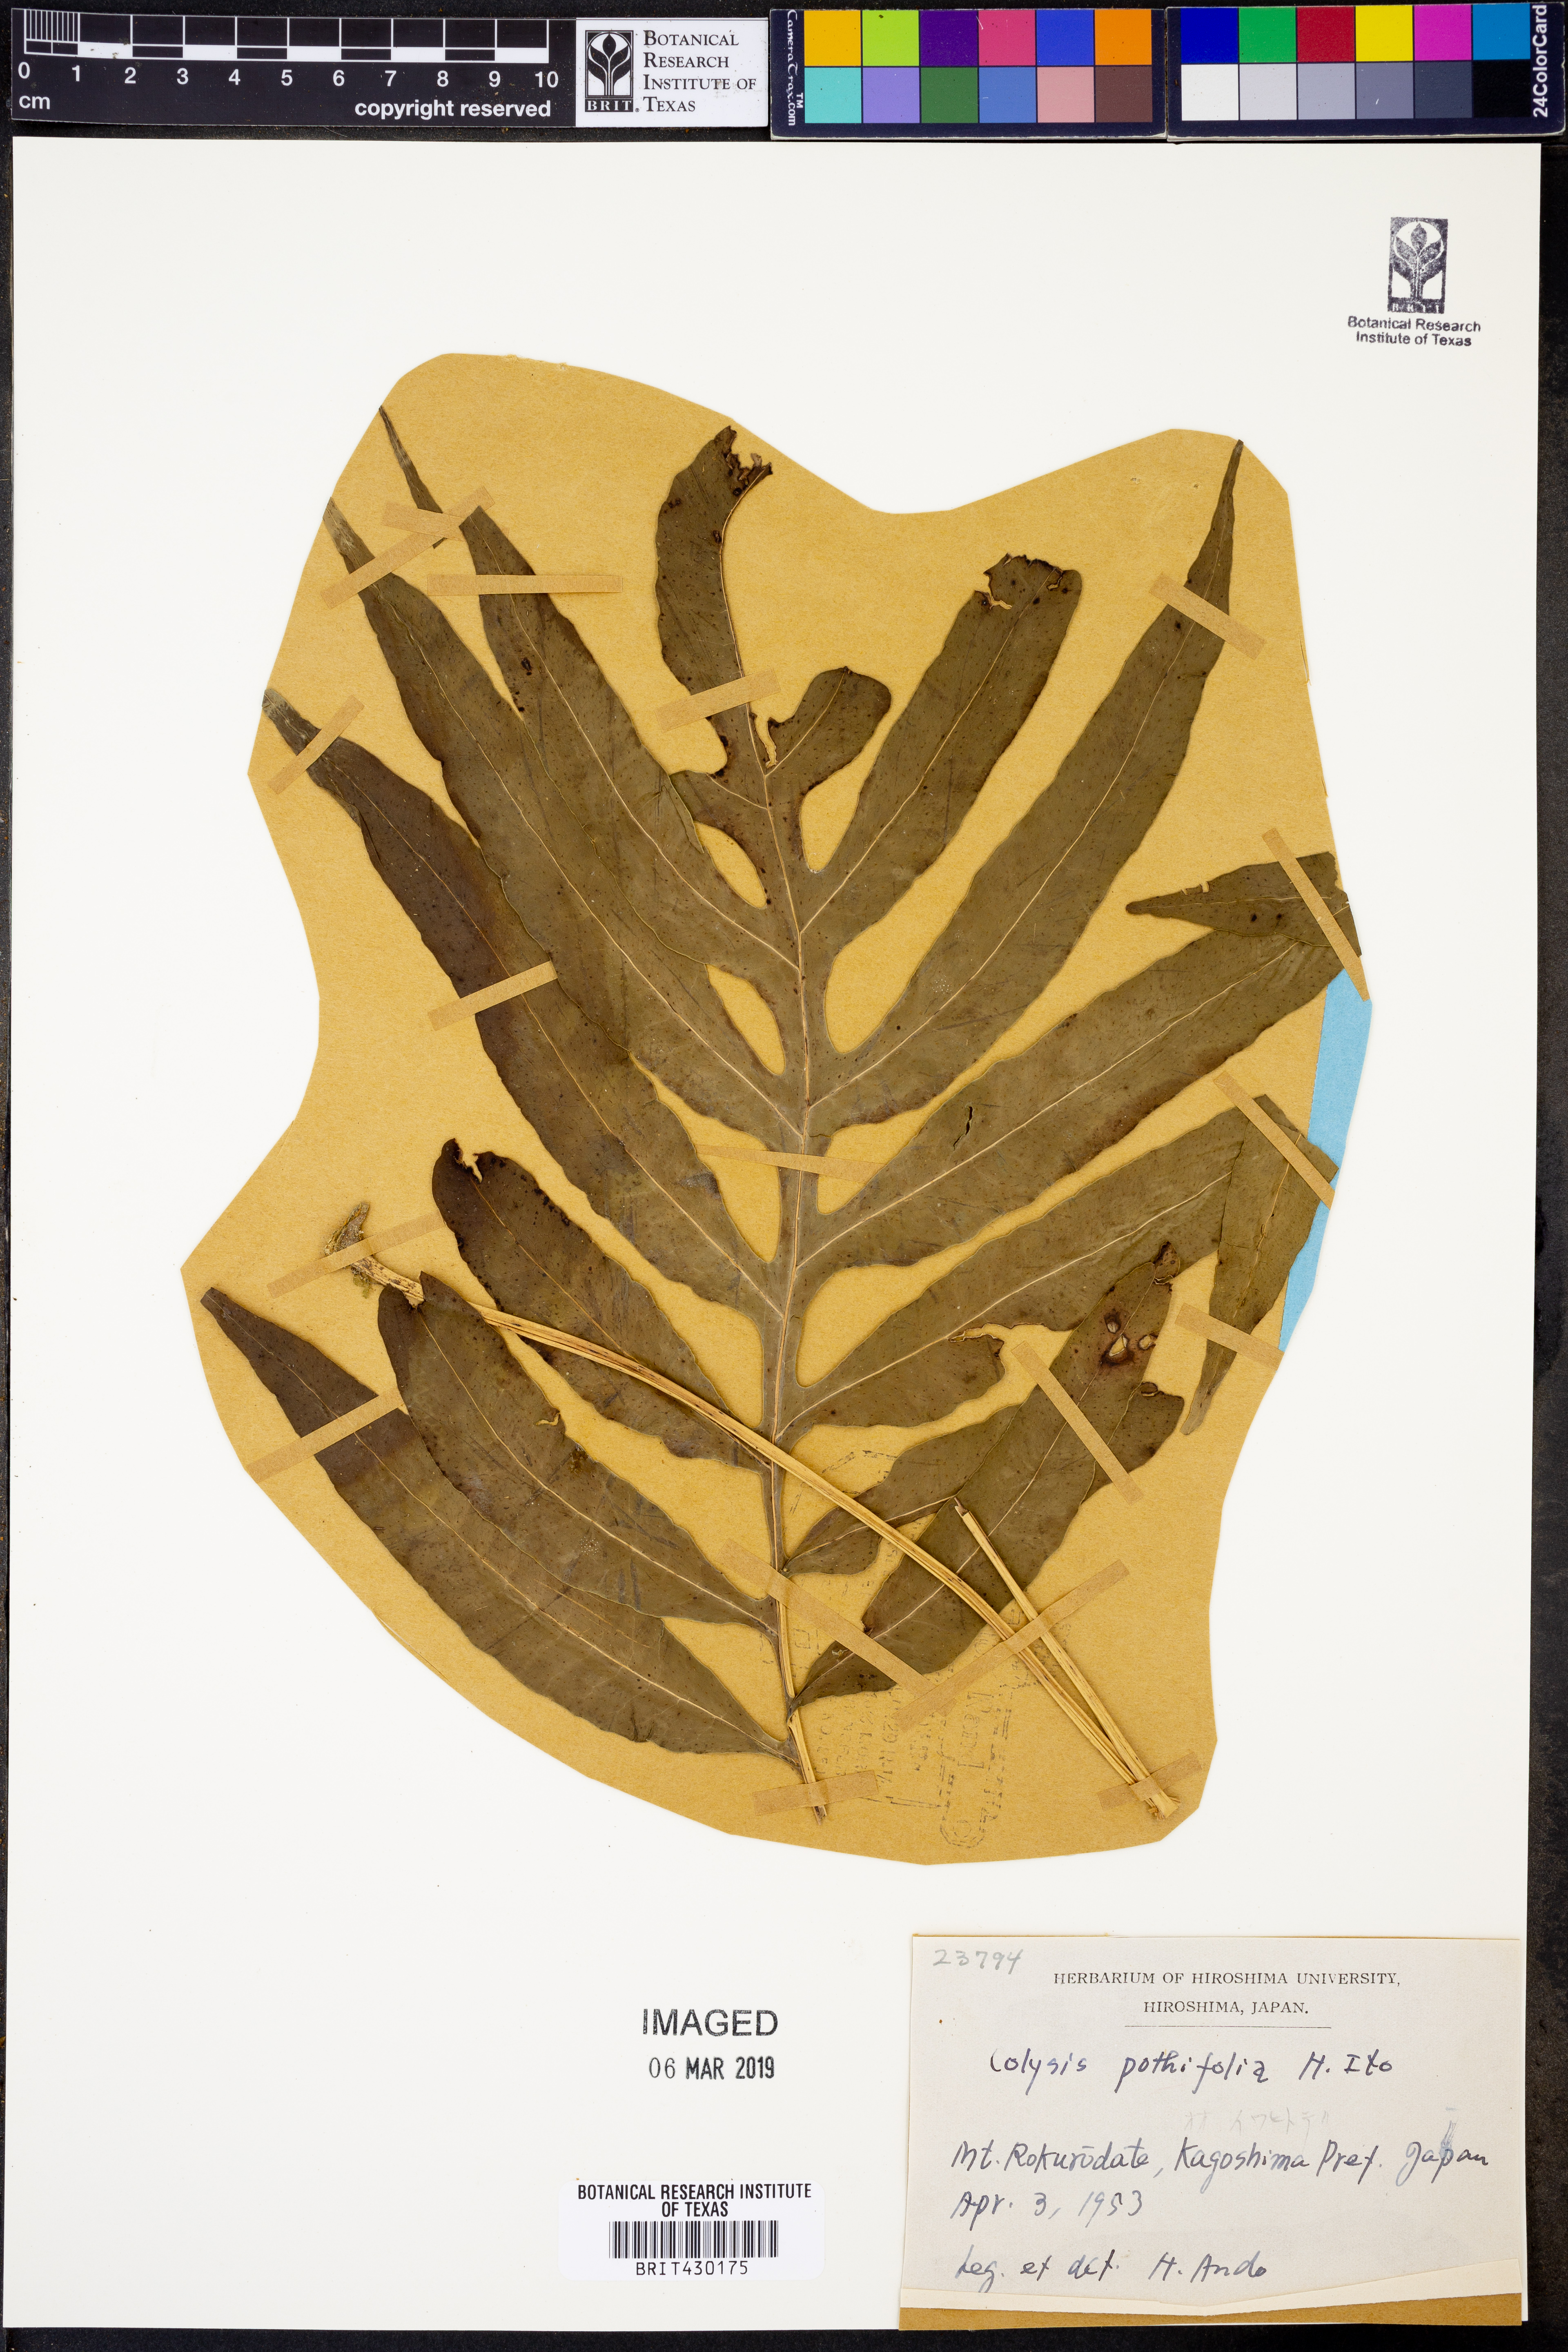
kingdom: Plantae
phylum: Tracheophyta
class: Polypodiopsida
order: Polypodiales
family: Polypodiaceae
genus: Leptochilus
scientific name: Leptochilus pothifolius
